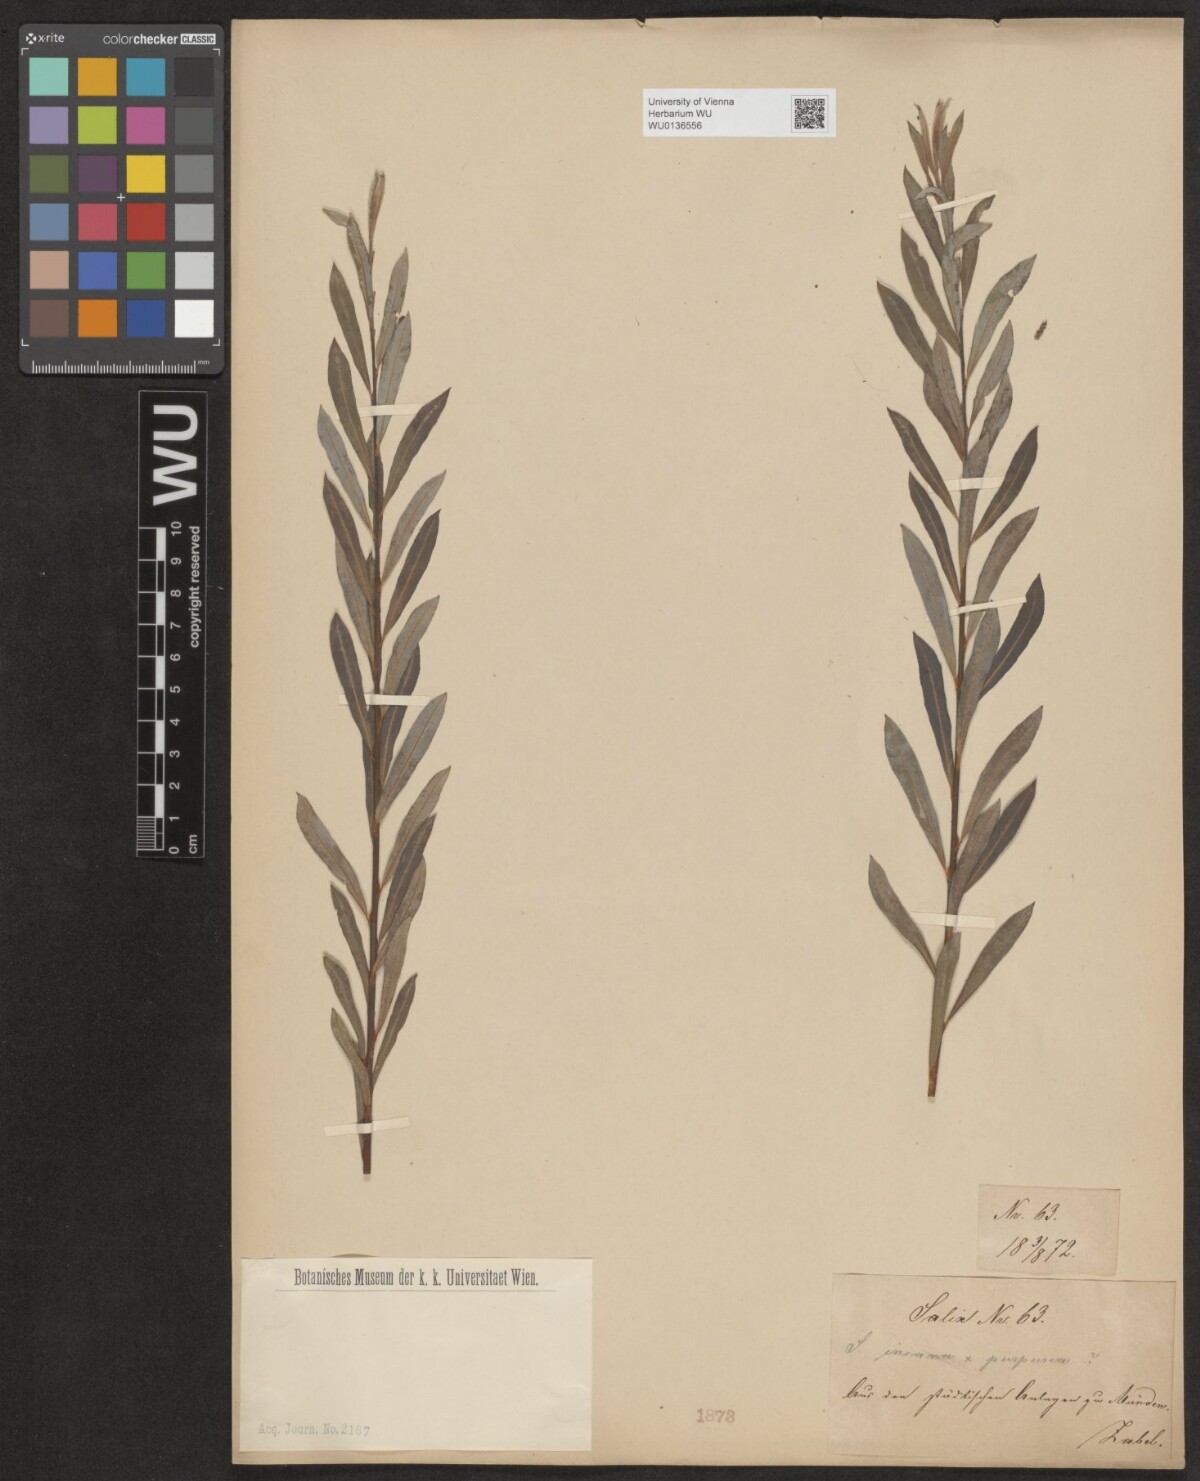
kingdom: Plantae
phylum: Tracheophyta
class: Magnoliopsida
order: Malpighiales
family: Salicaceae
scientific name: Salicaceae
